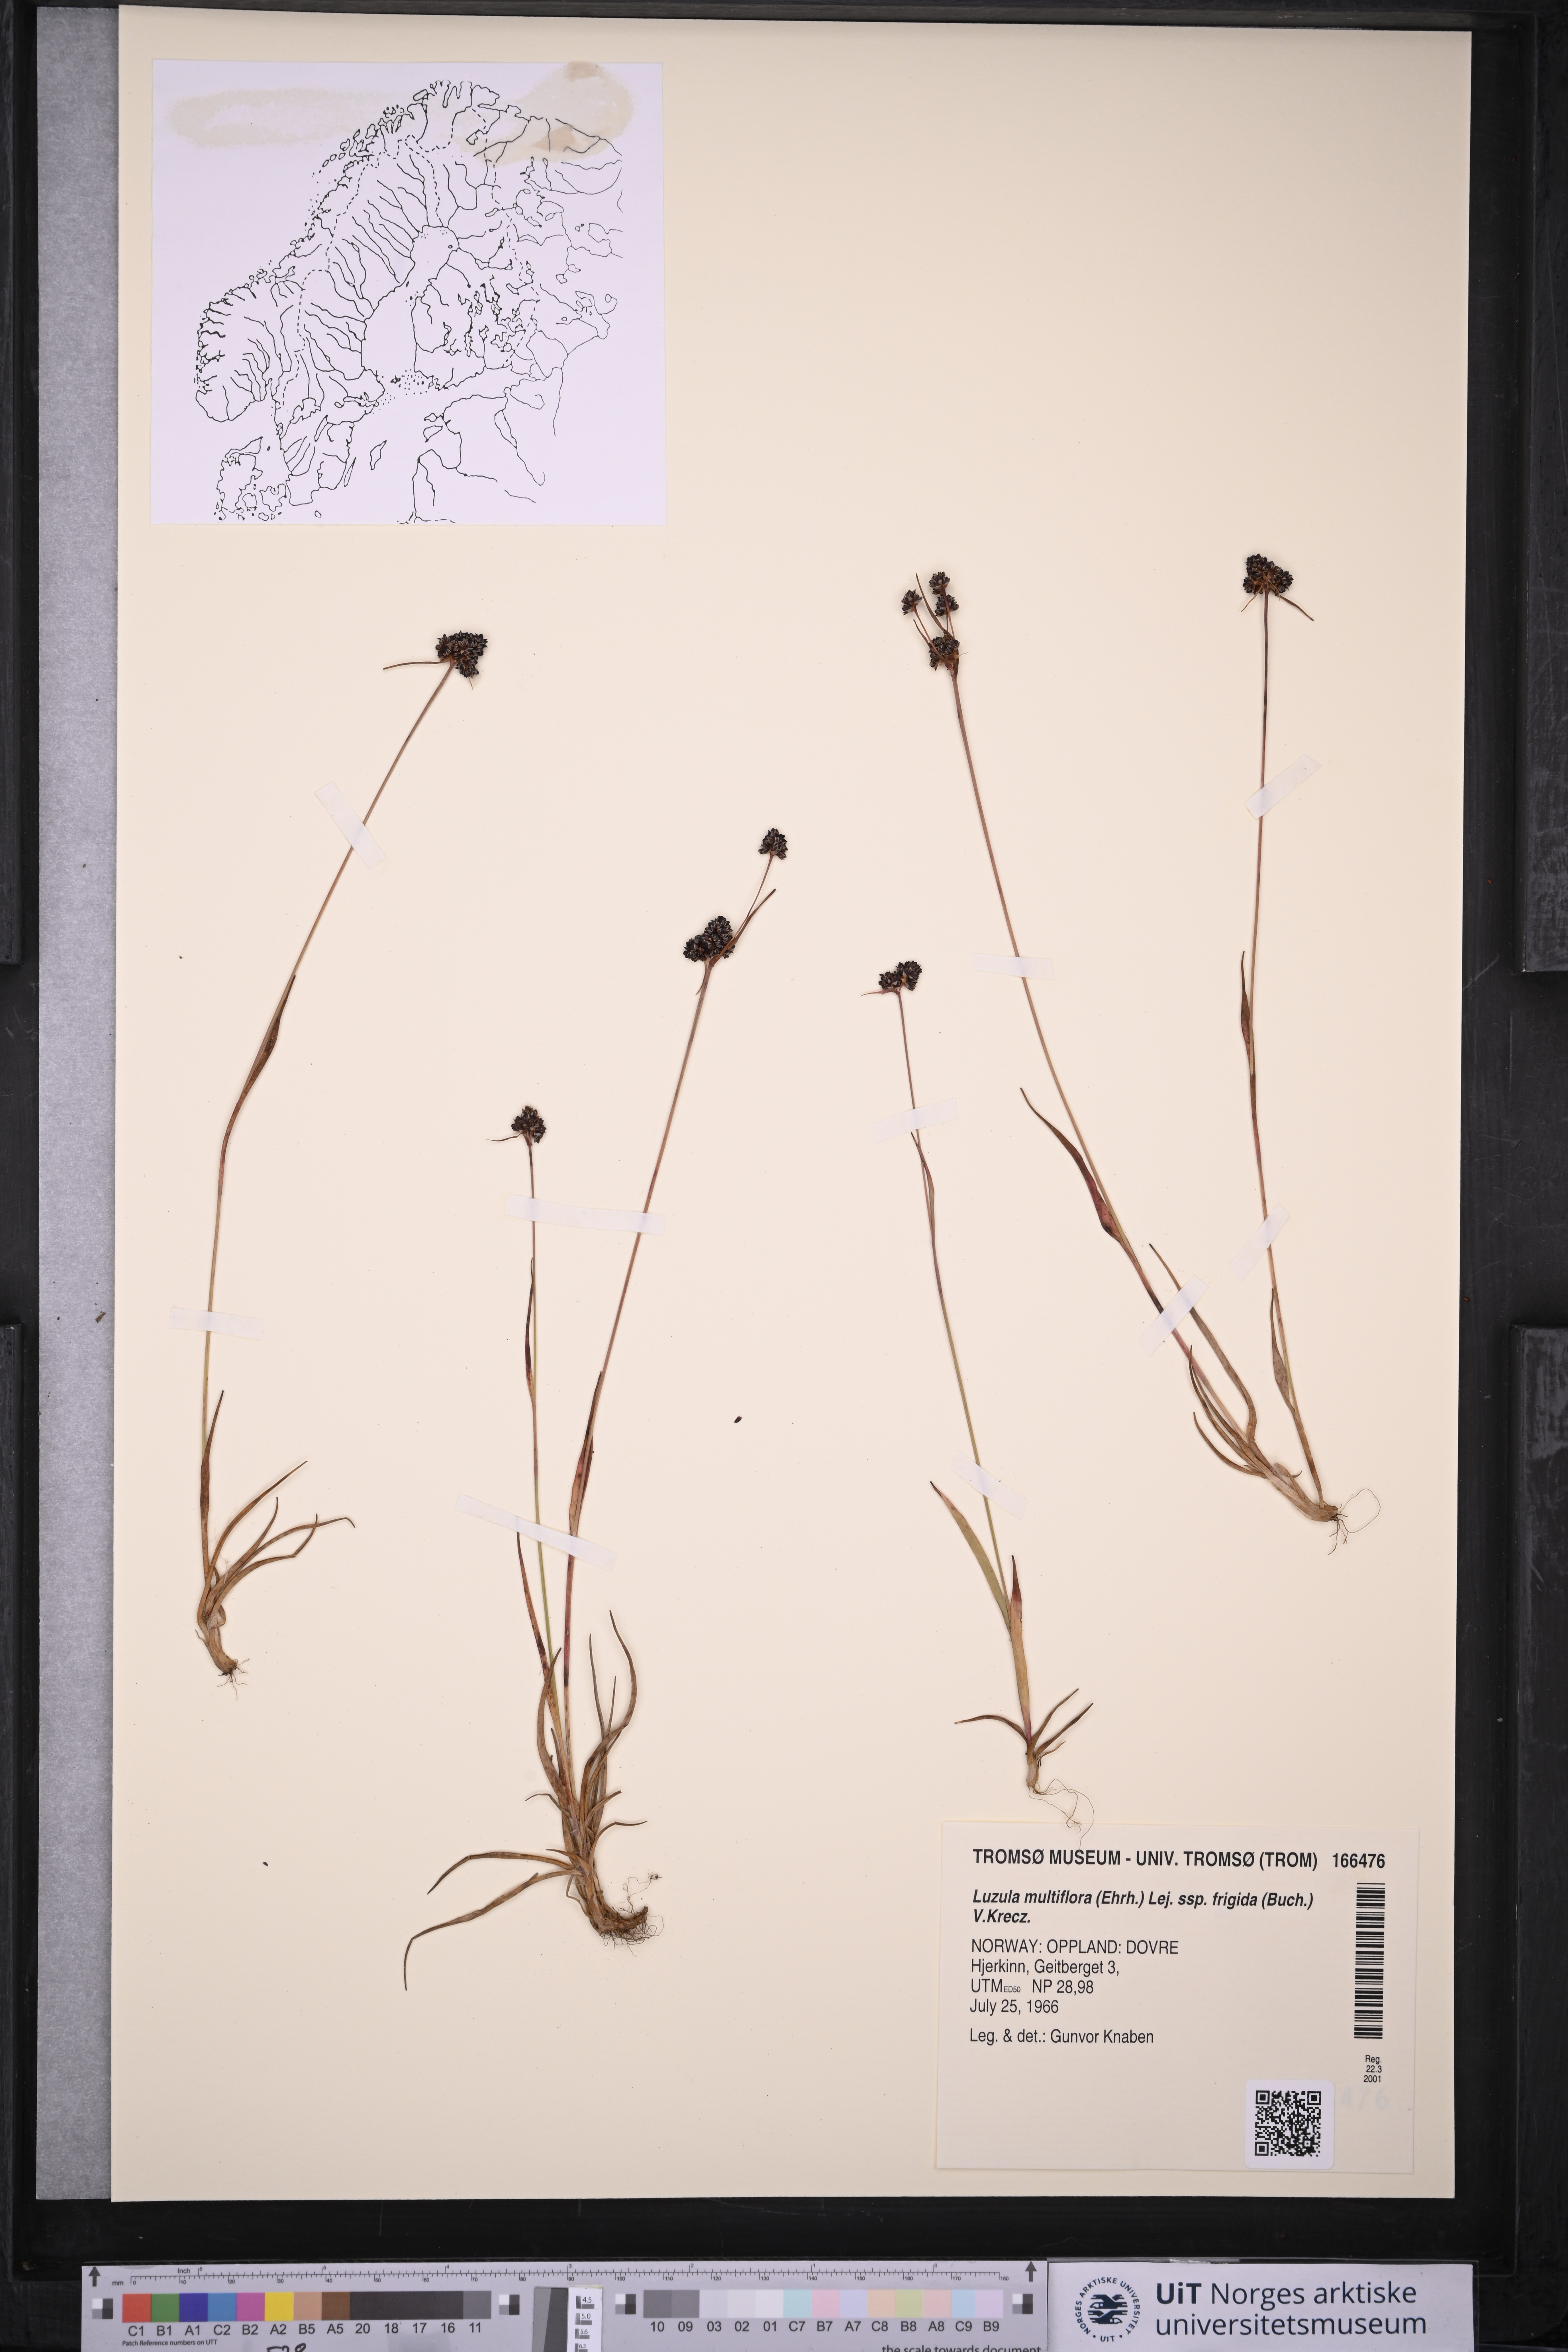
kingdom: Plantae
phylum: Tracheophyta
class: Liliopsida
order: Poales
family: Juncaceae
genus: Luzula
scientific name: Luzula multiflora
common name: Heath wood-rush
